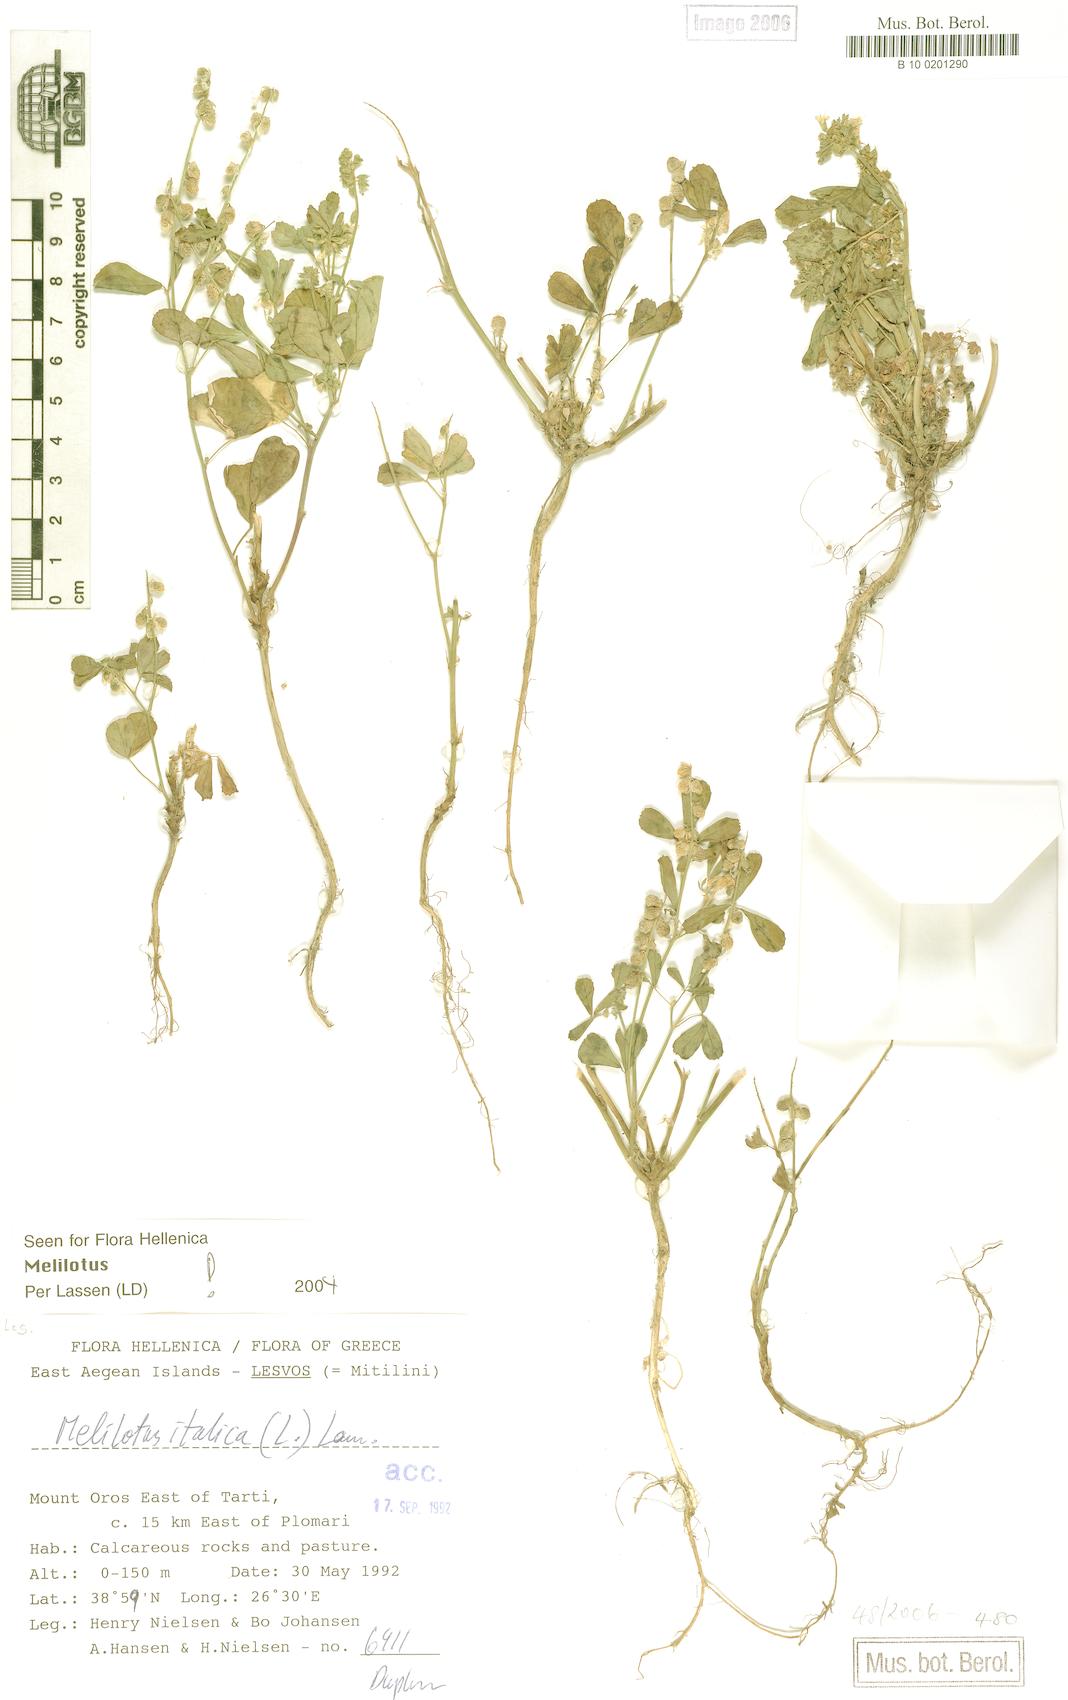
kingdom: Plantae
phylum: Tracheophyta
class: Magnoliopsida
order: Fabales
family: Fabaceae
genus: Melilotus
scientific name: Melilotus italicus
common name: Italian melilot
